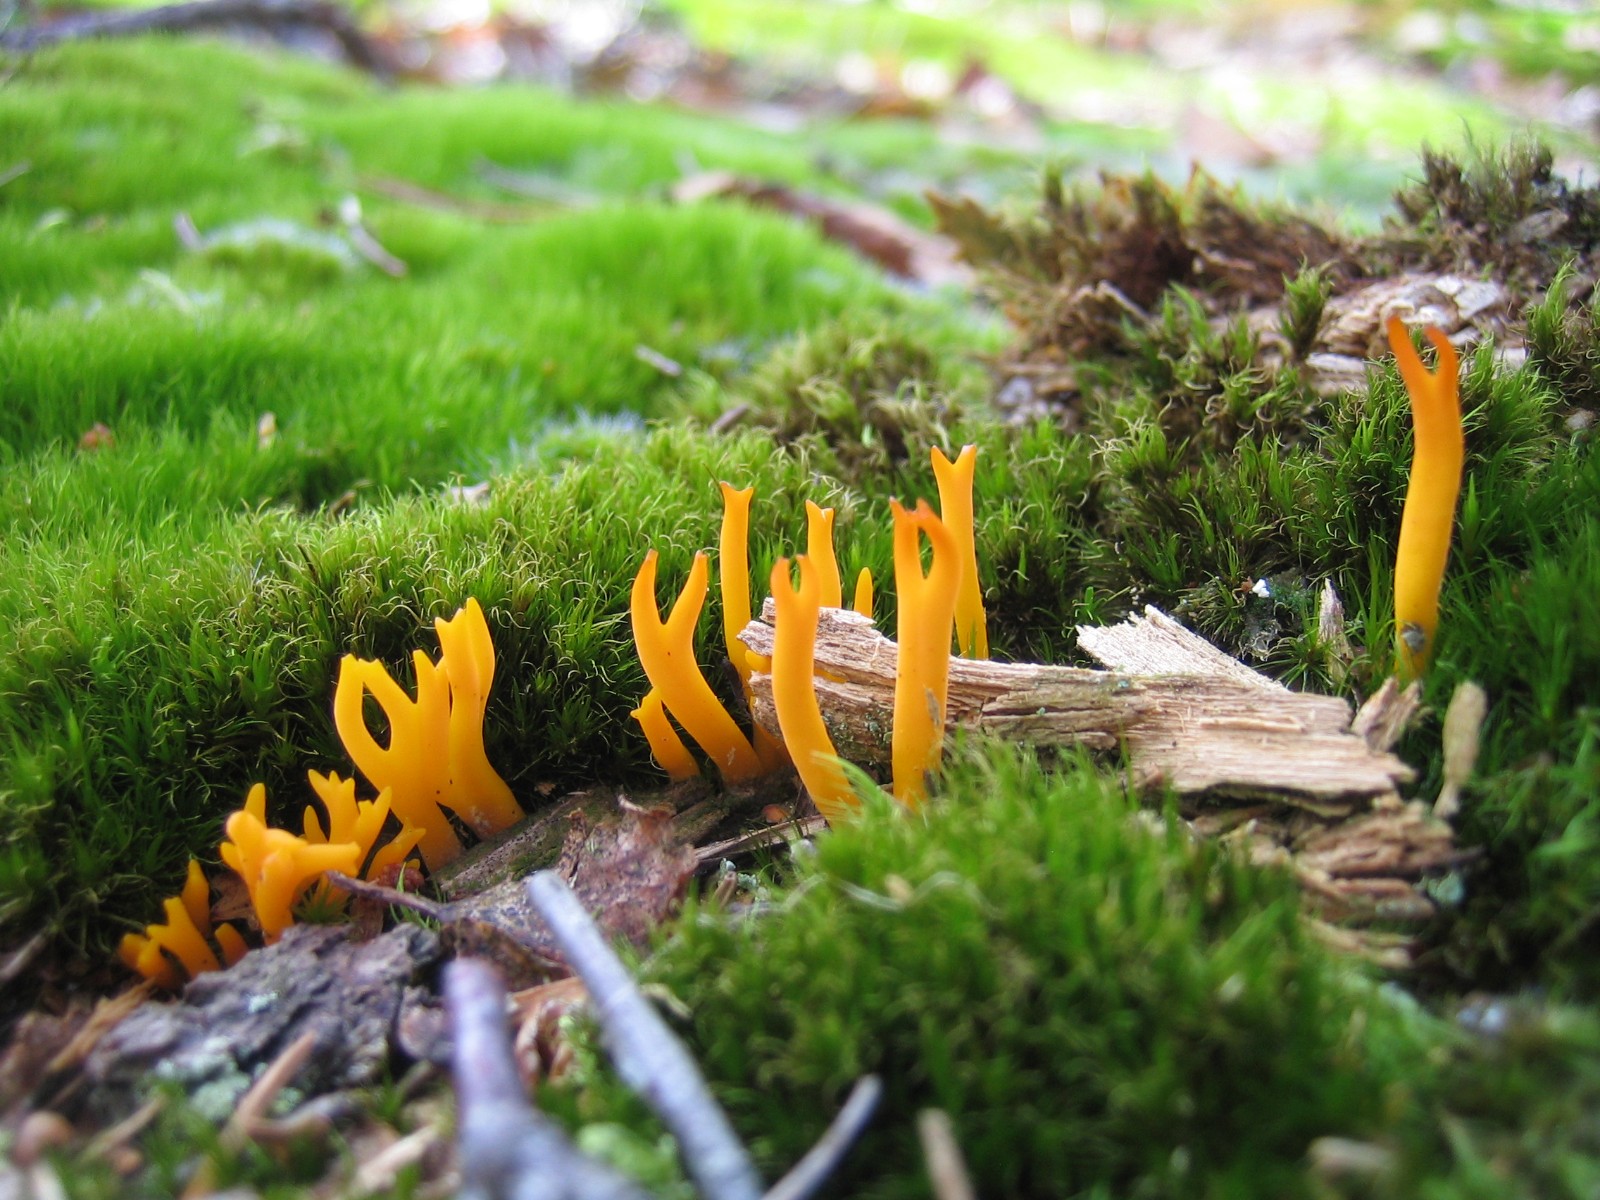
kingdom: Fungi
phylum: Basidiomycota
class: Dacrymycetes
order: Dacrymycetales
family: Dacrymycetaceae
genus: Calocera
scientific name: Calocera viscosa
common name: almindelig guldgaffel
